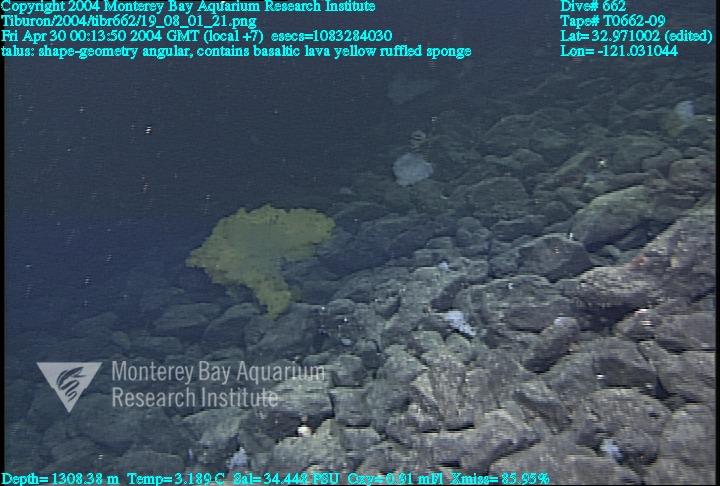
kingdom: Animalia
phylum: Porifera
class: Hexactinellida
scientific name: Hexactinellida
